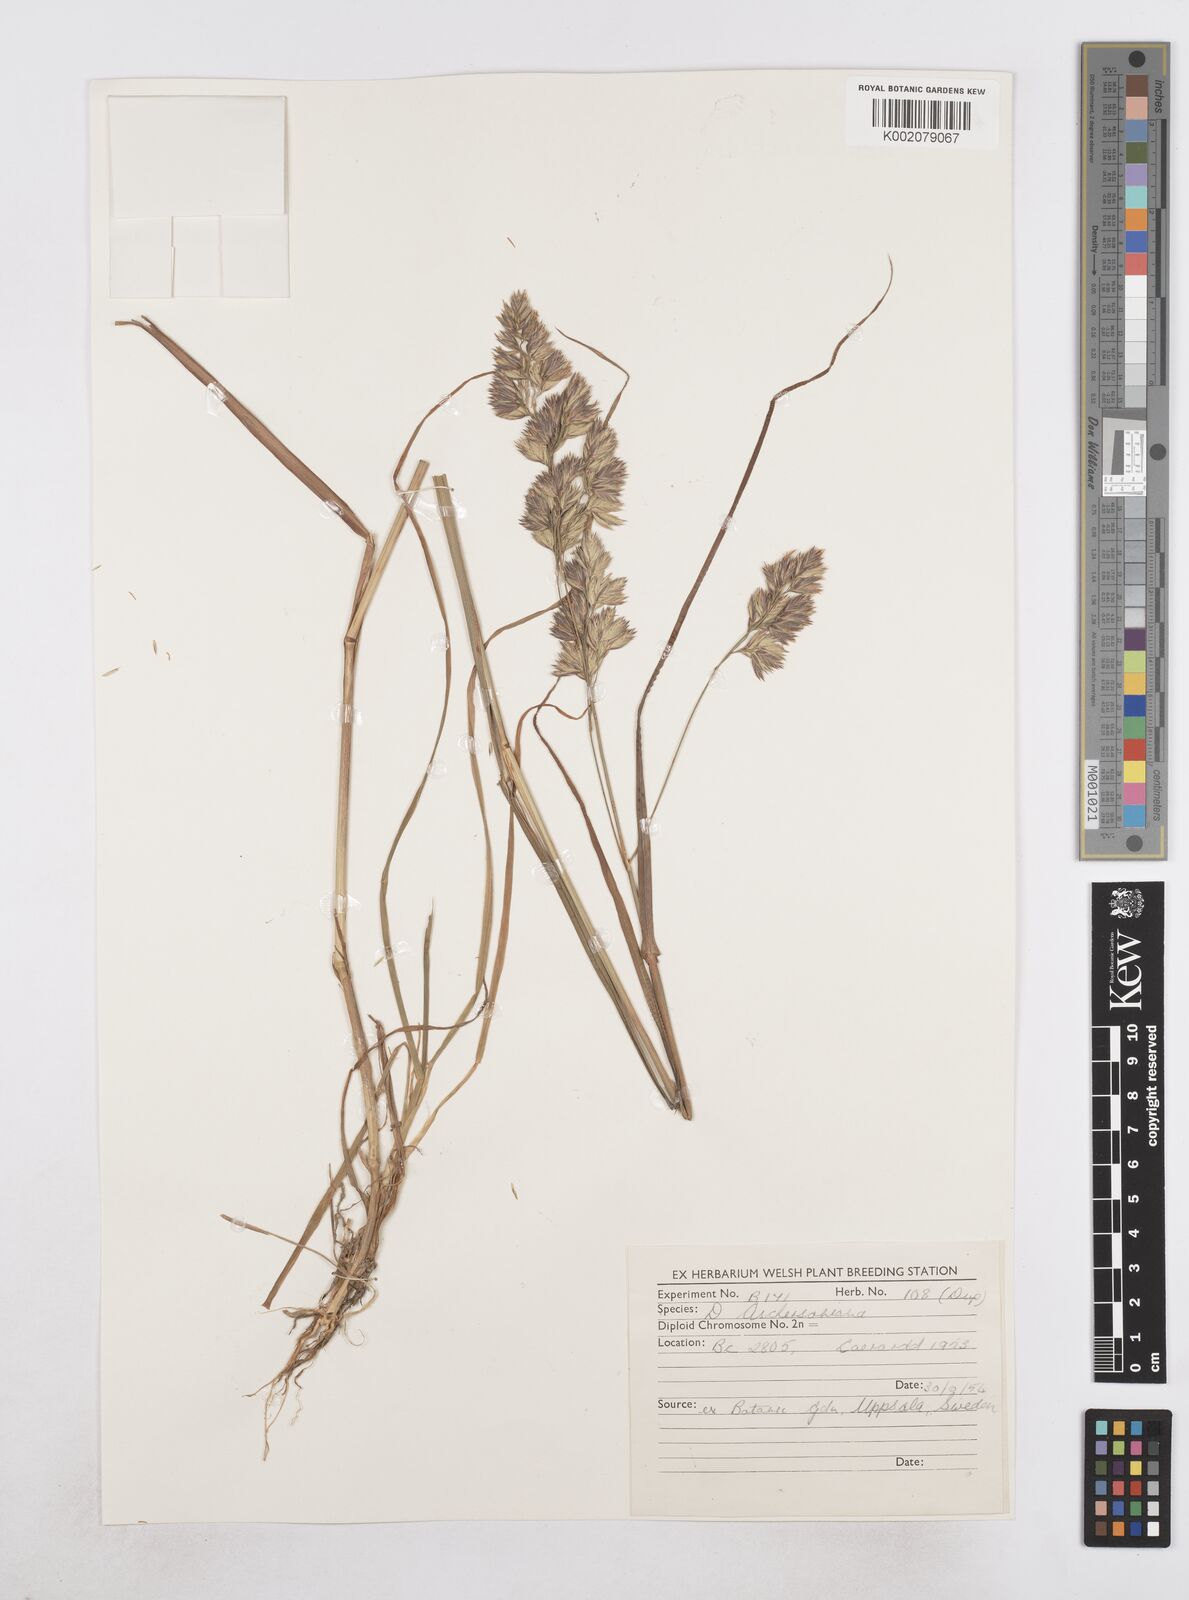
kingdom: Plantae
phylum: Tracheophyta
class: Liliopsida
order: Poales
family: Poaceae
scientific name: Poaceae
